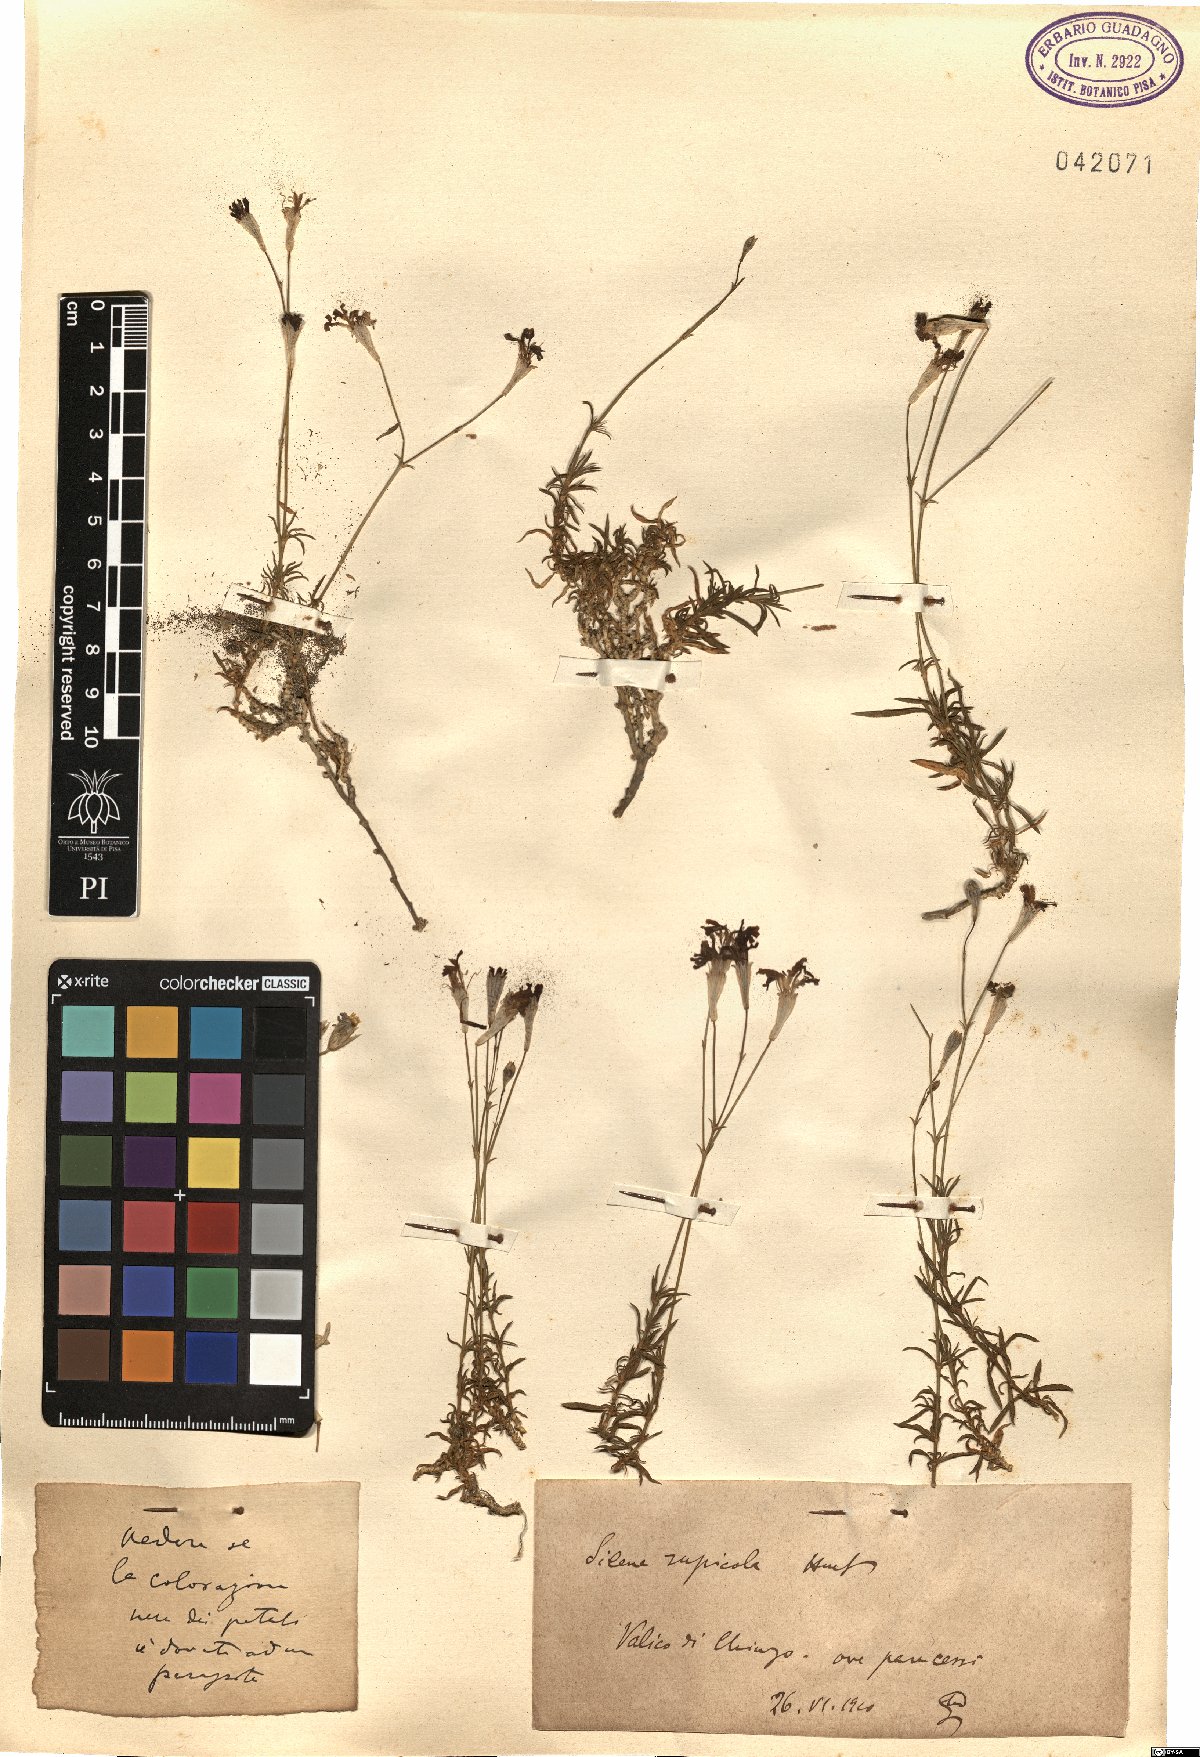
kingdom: Plantae
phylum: Tracheophyta
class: Magnoliopsida
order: Caryophyllales
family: Caryophyllaceae
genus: Silene
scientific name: Silene
